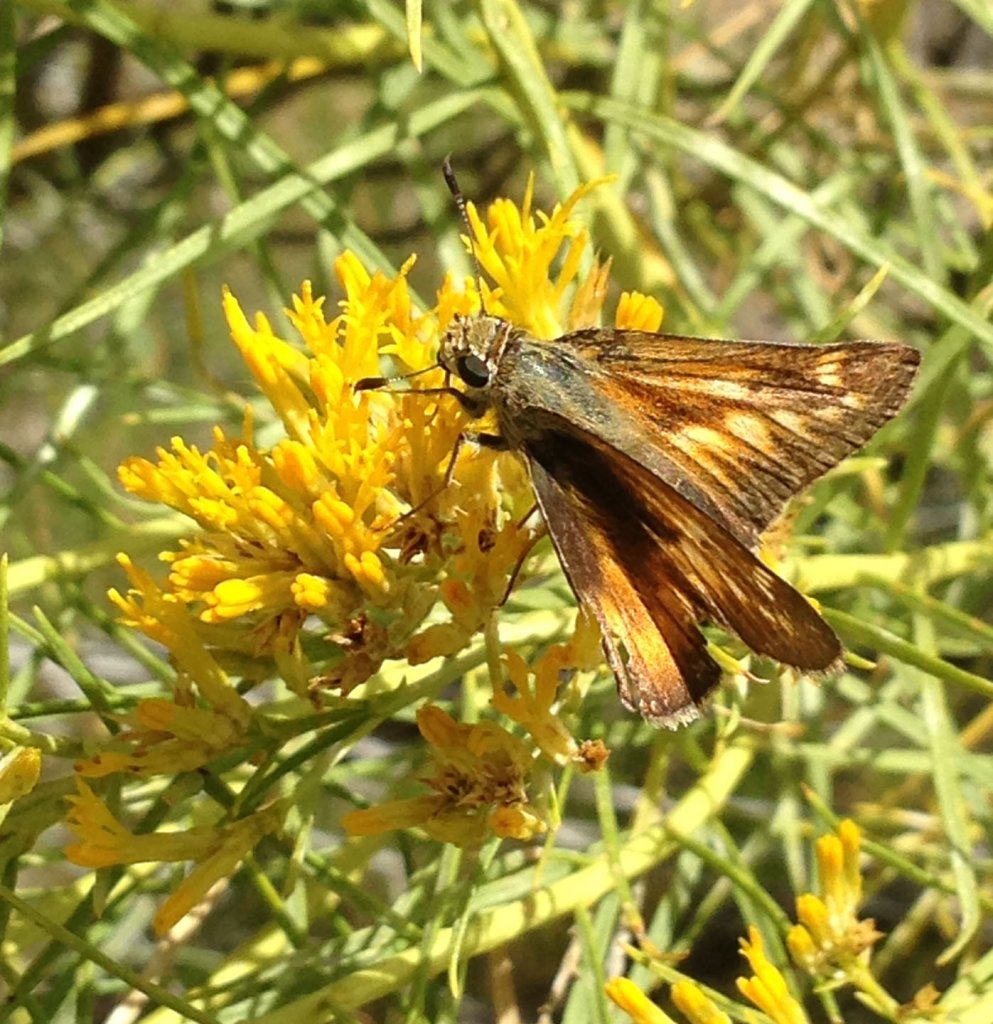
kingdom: Animalia
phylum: Arthropoda
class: Insecta
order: Lepidoptera
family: Hesperiidae
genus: Ochlodes
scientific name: Ochlodes sylvanoides
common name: Yuma Skipper
